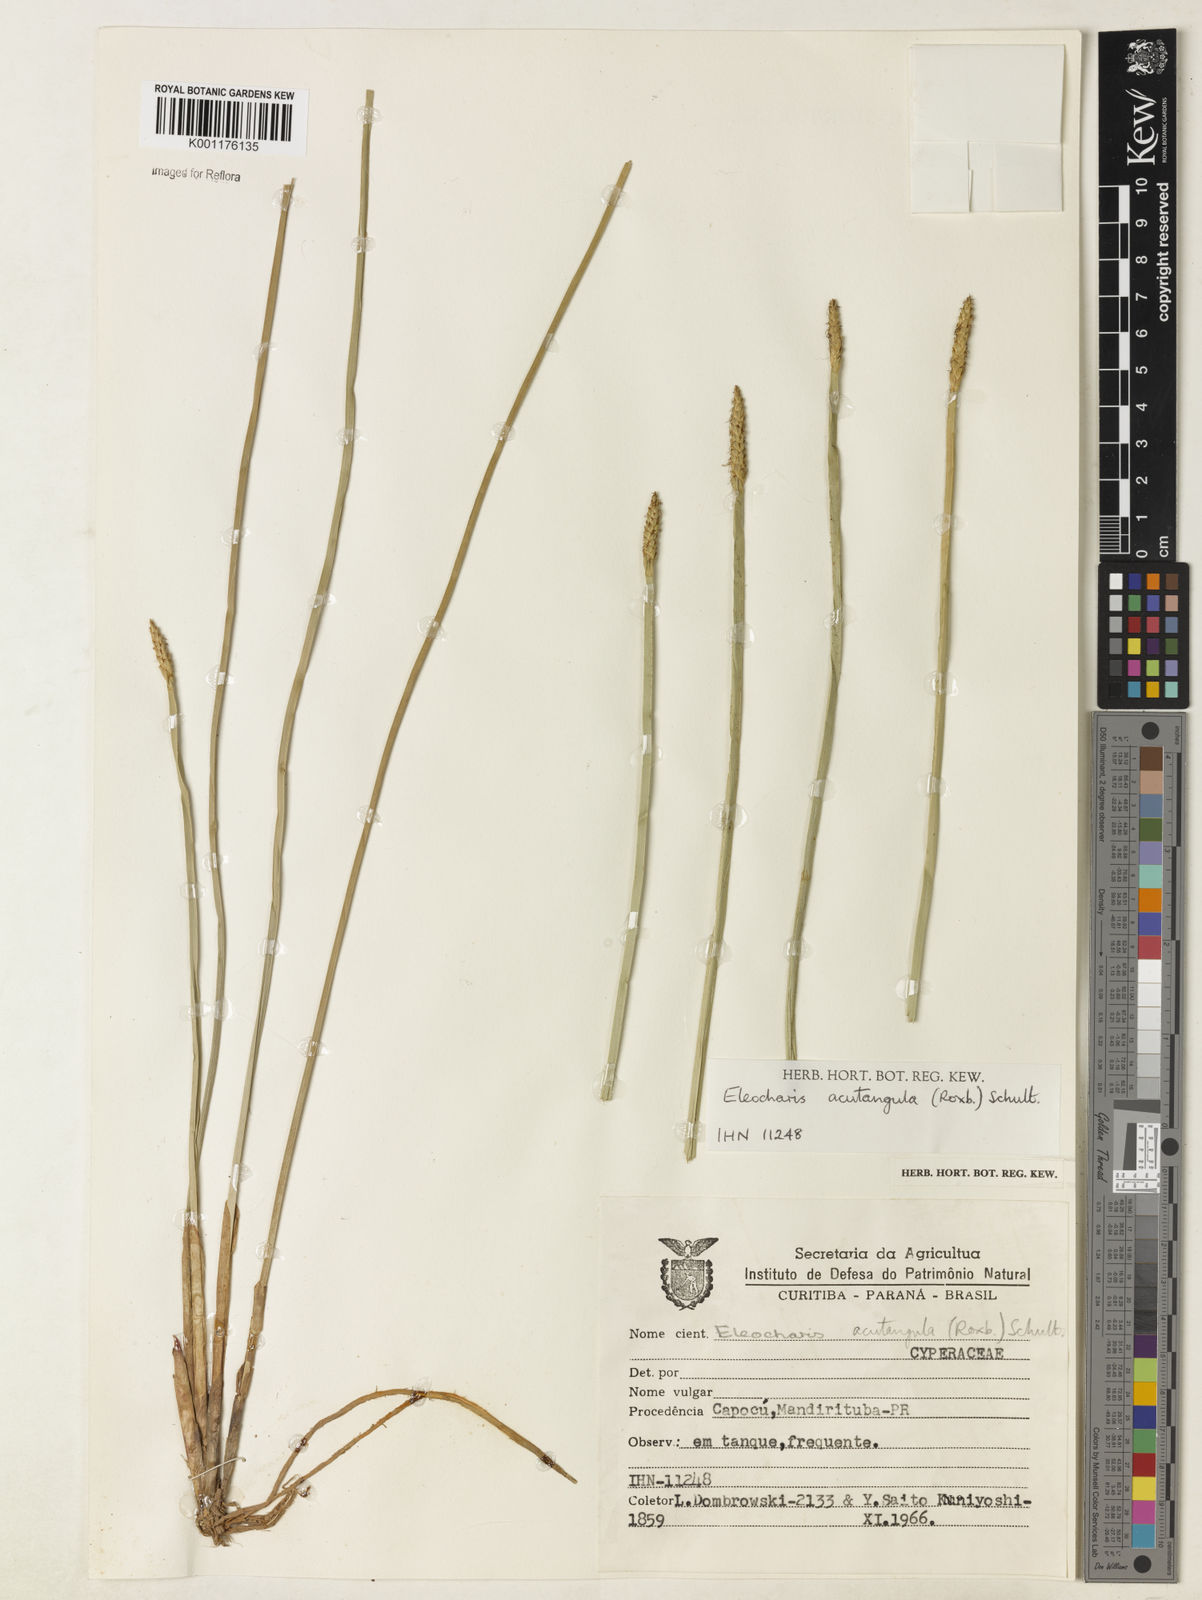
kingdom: Plantae
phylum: Tracheophyta
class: Liliopsida
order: Poales
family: Cyperaceae
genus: Eleocharis
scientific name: Eleocharis acutangula
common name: Acute spikerush
